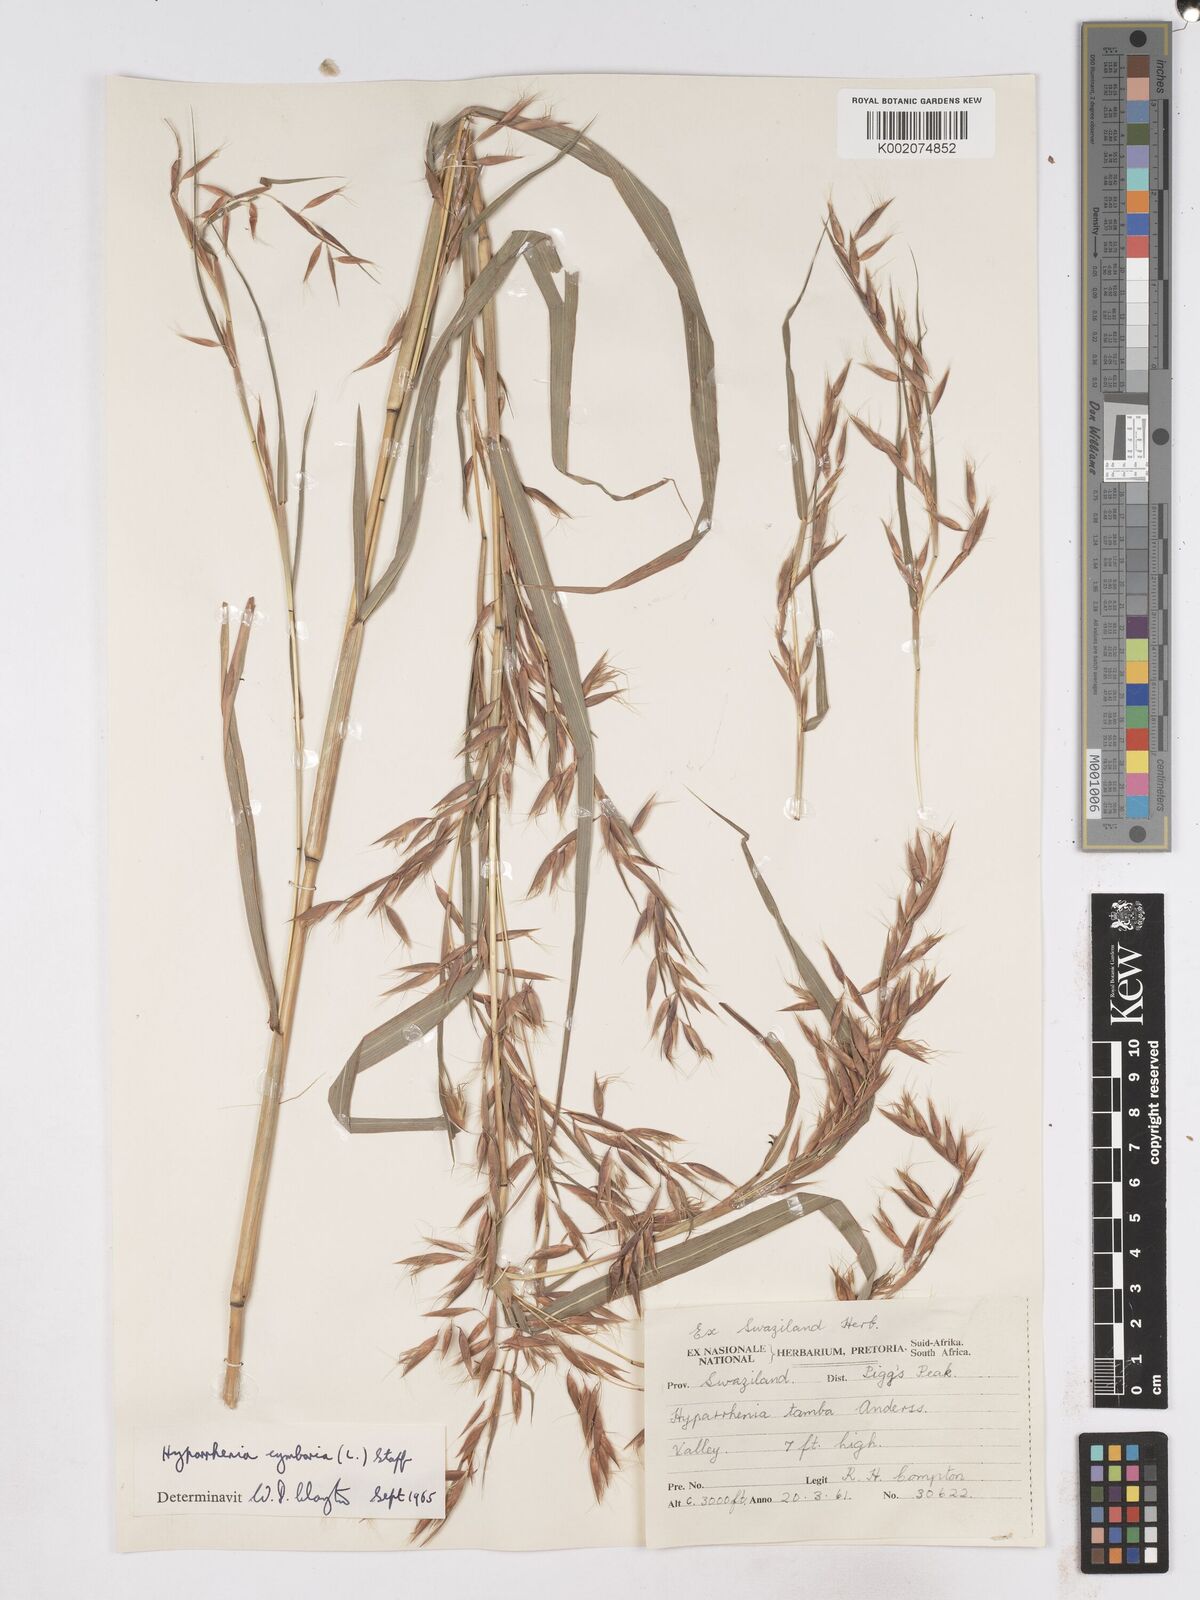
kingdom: Plantae
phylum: Tracheophyta
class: Liliopsida
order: Poales
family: Poaceae
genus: Hyparrhenia
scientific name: Hyparrhenia cymbaria
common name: Boat thatching grass
